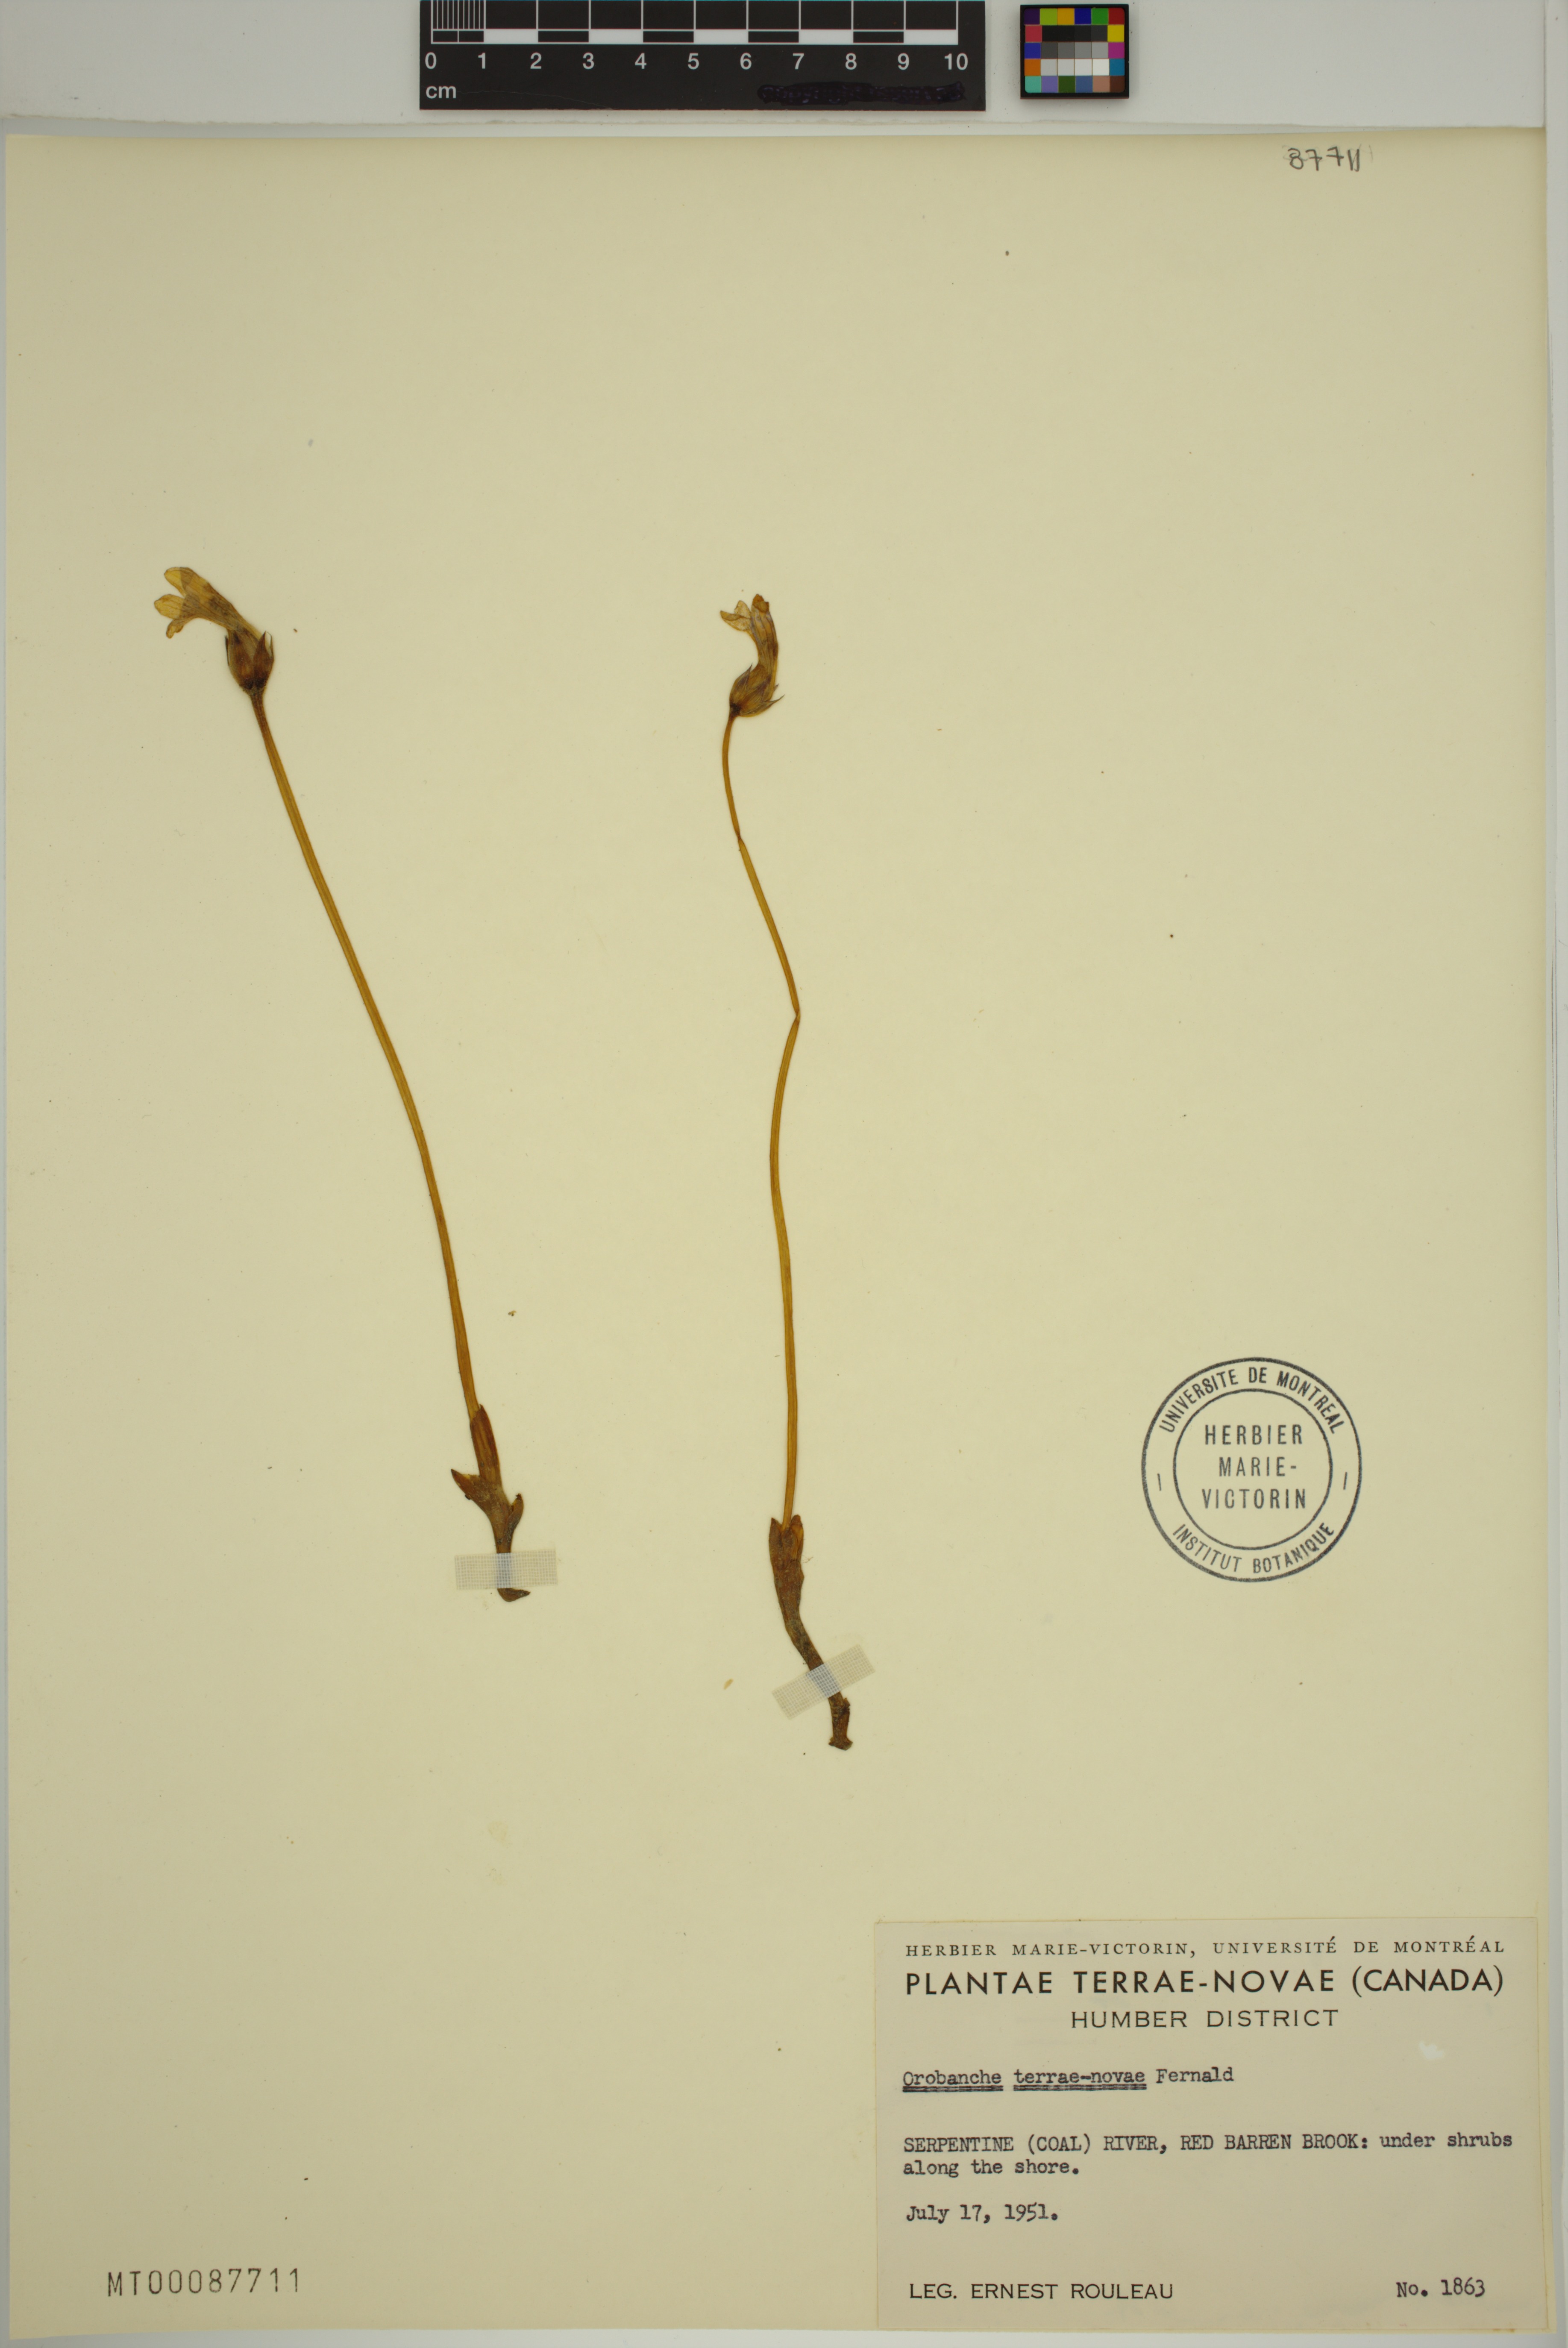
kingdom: Plantae
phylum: Tracheophyta
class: Magnoliopsida
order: Lamiales
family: Orobanchaceae
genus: Aphyllon
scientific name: Aphyllon uniflorum
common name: One-flowered broomrape
